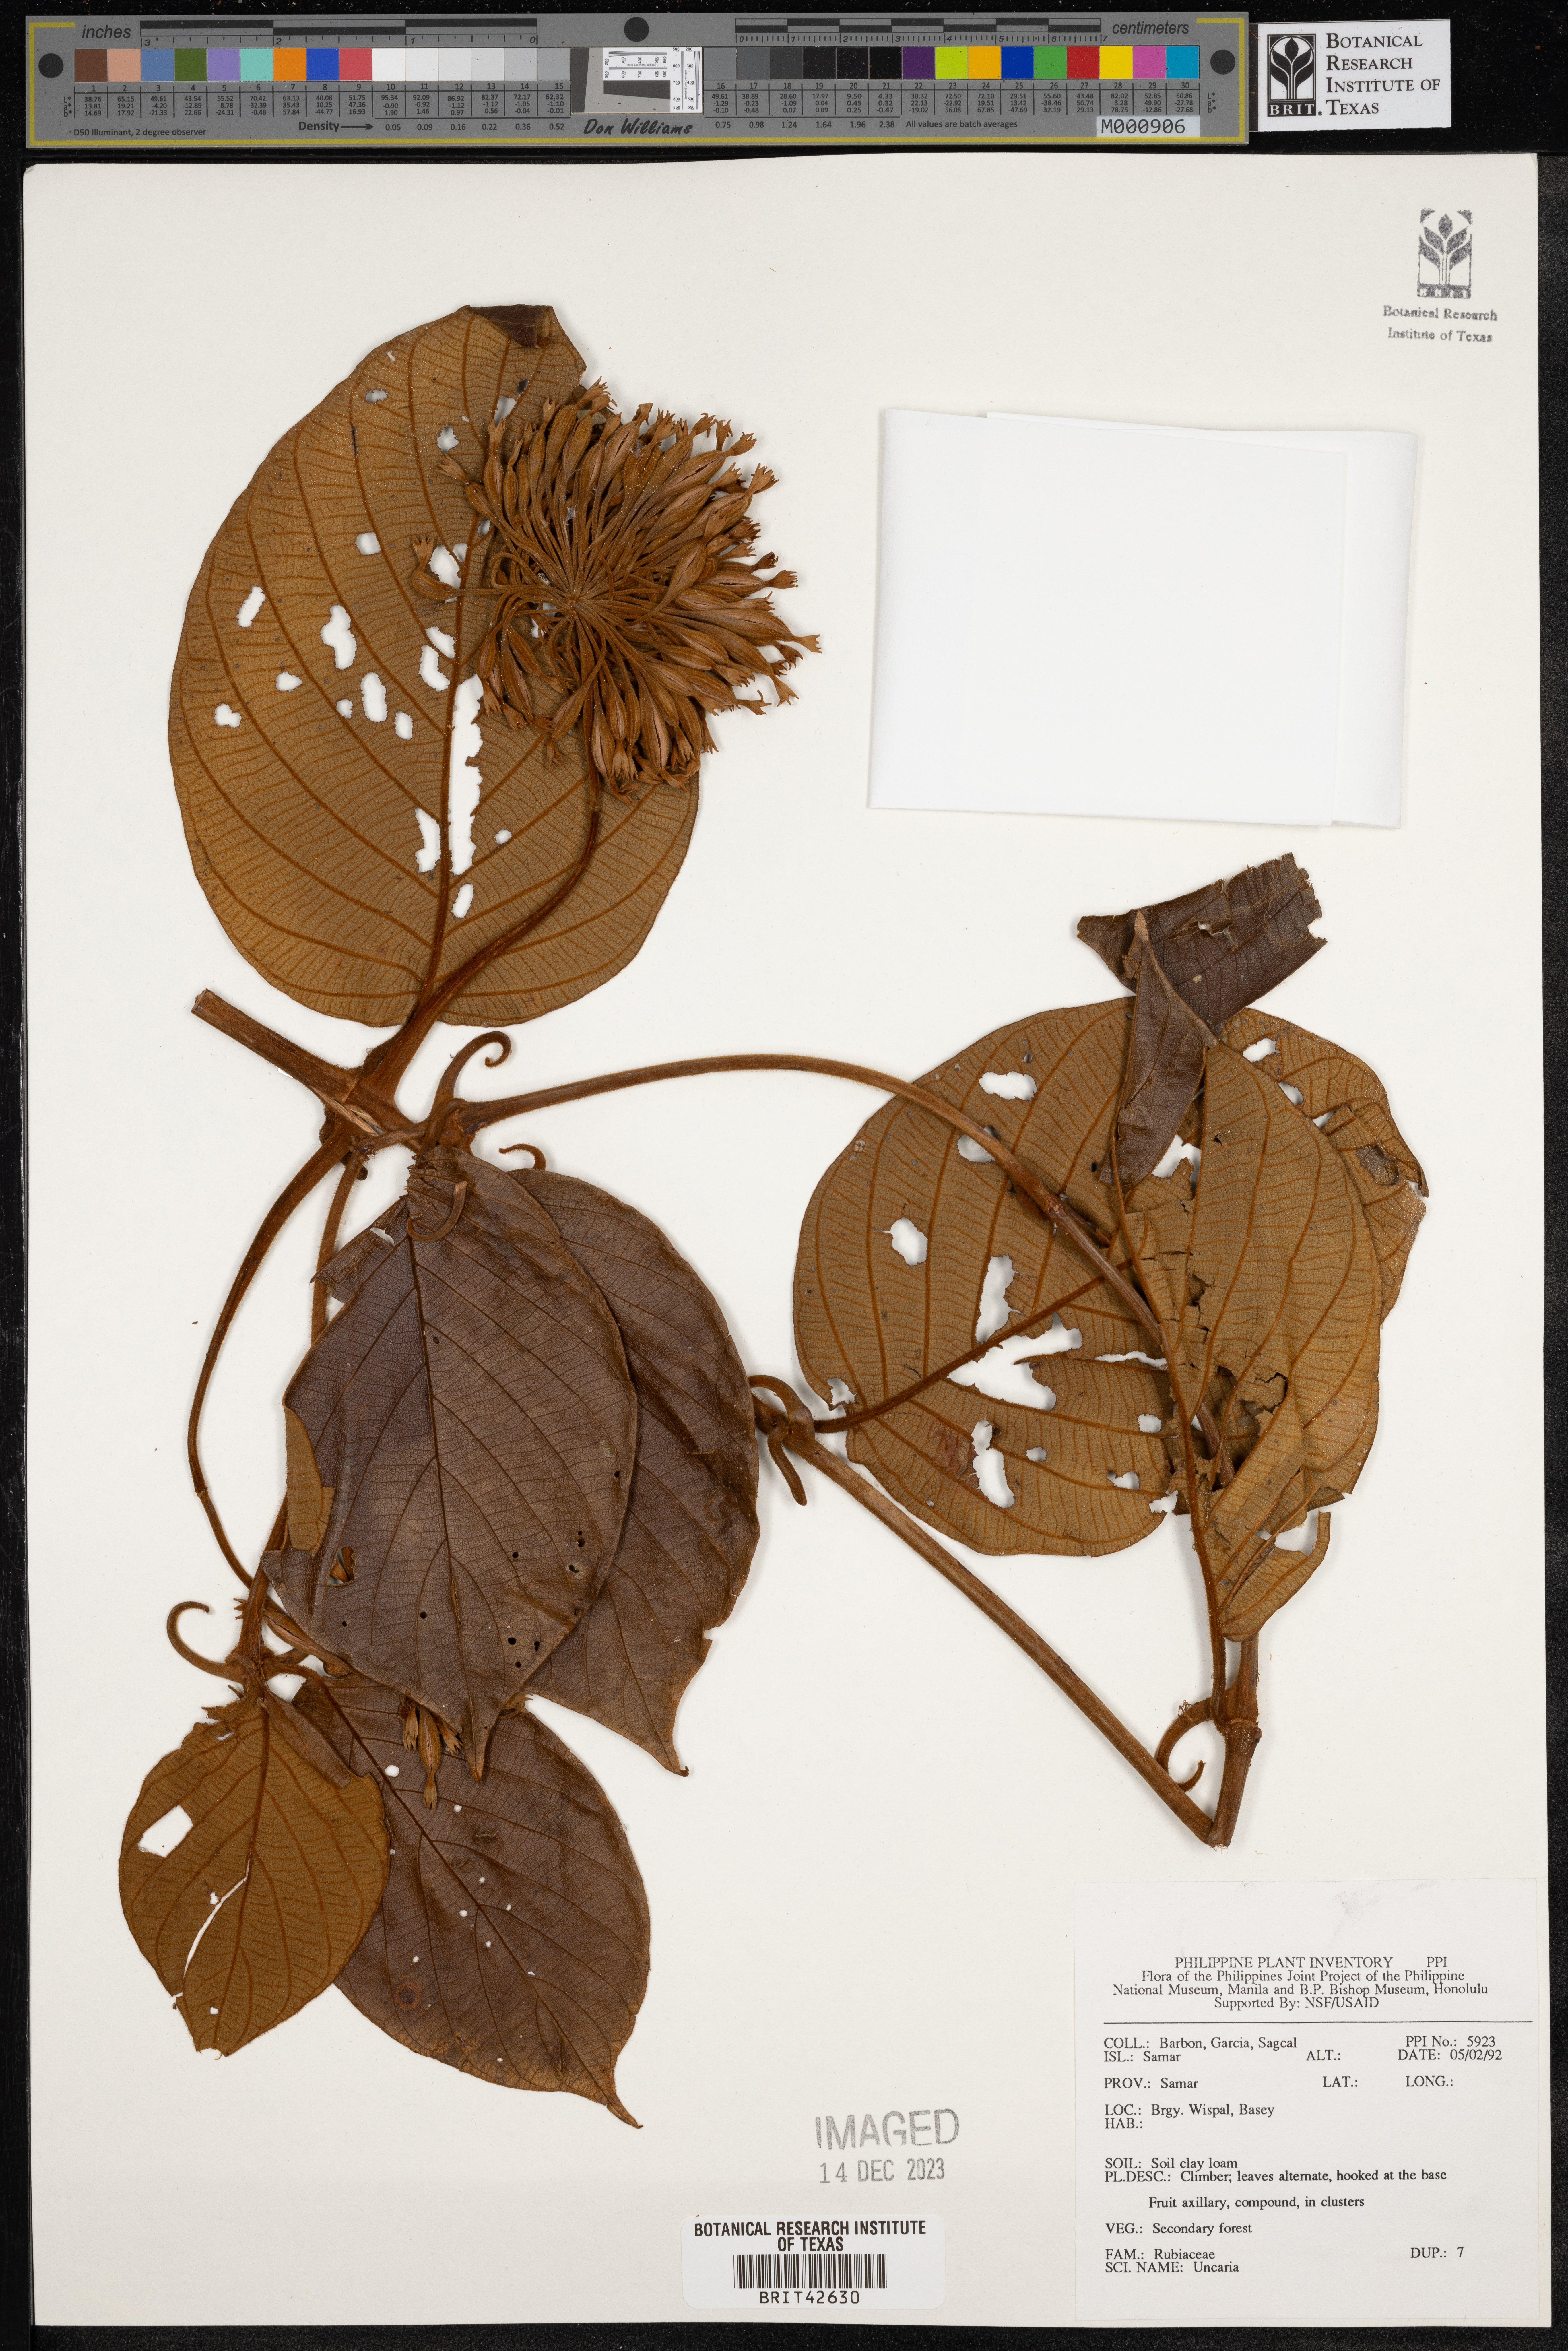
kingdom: Plantae
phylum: Tracheophyta
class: Magnoliopsida
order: Gentianales
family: Rubiaceae
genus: Uncaria
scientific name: Uncaria
